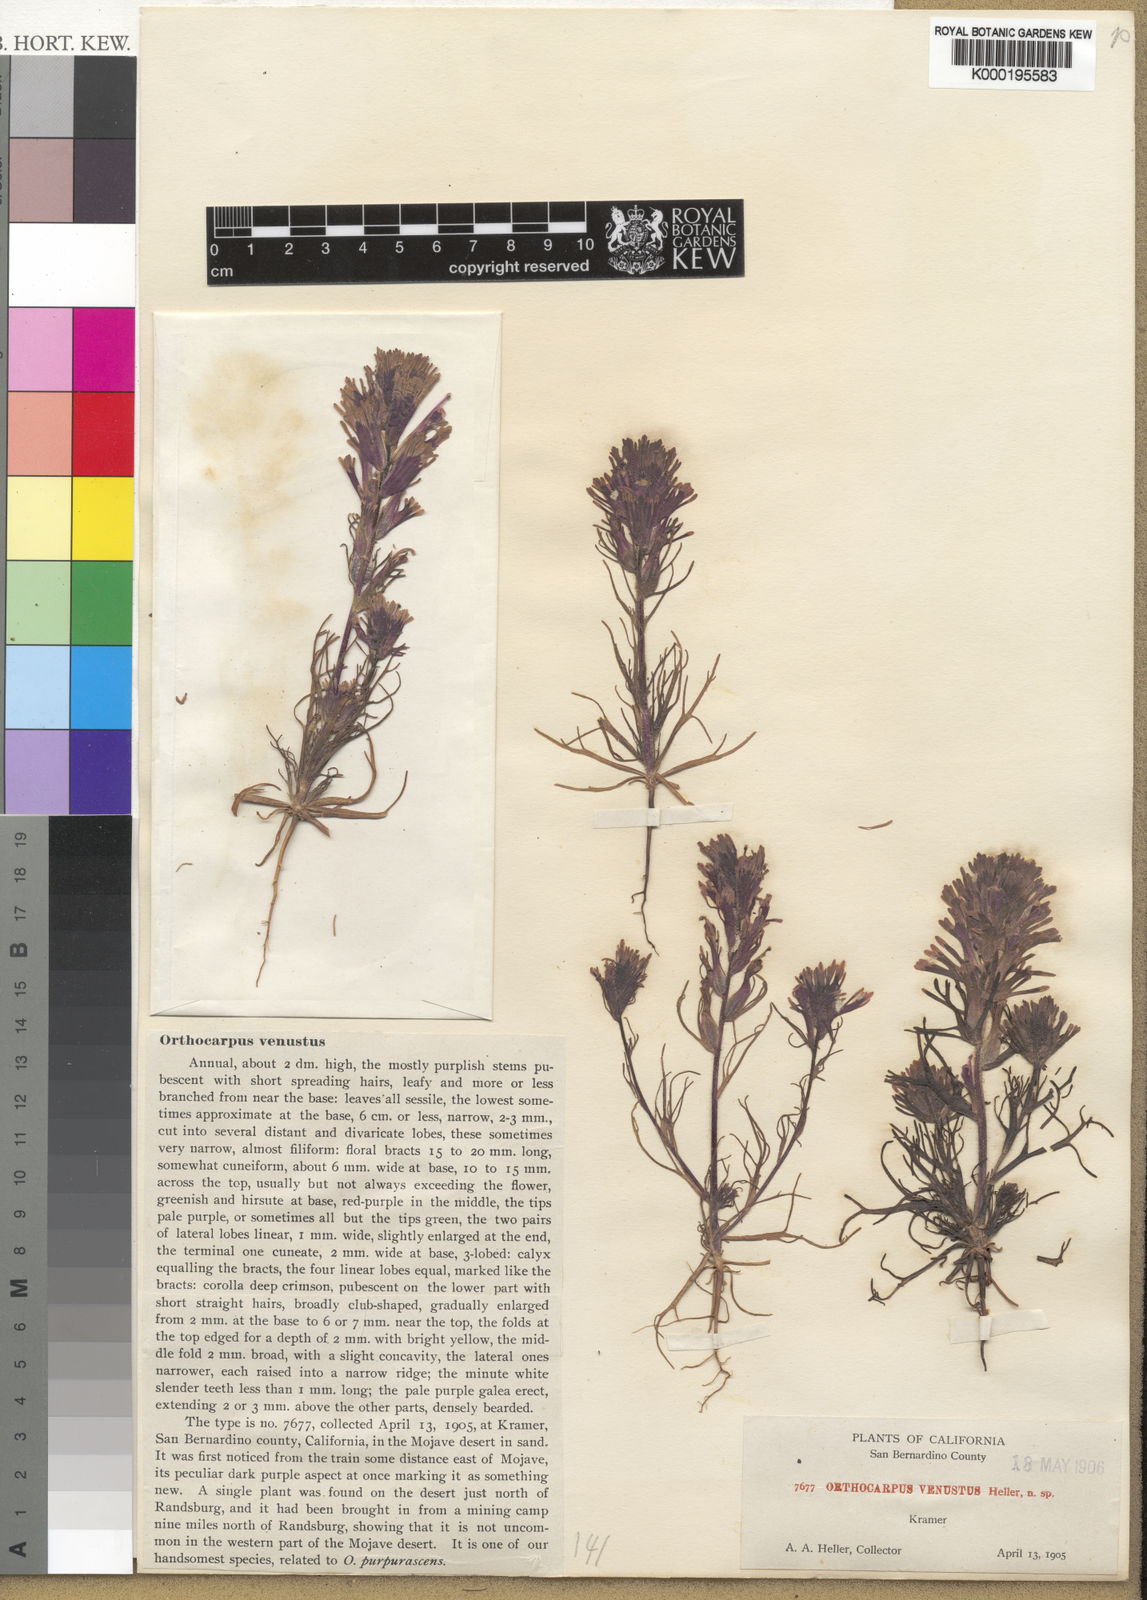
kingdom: Plantae
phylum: Tracheophyta
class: Magnoliopsida
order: Lamiales
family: Orobanchaceae
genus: Castilleja
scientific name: Castilleja exserta
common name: Purple owl-clover
